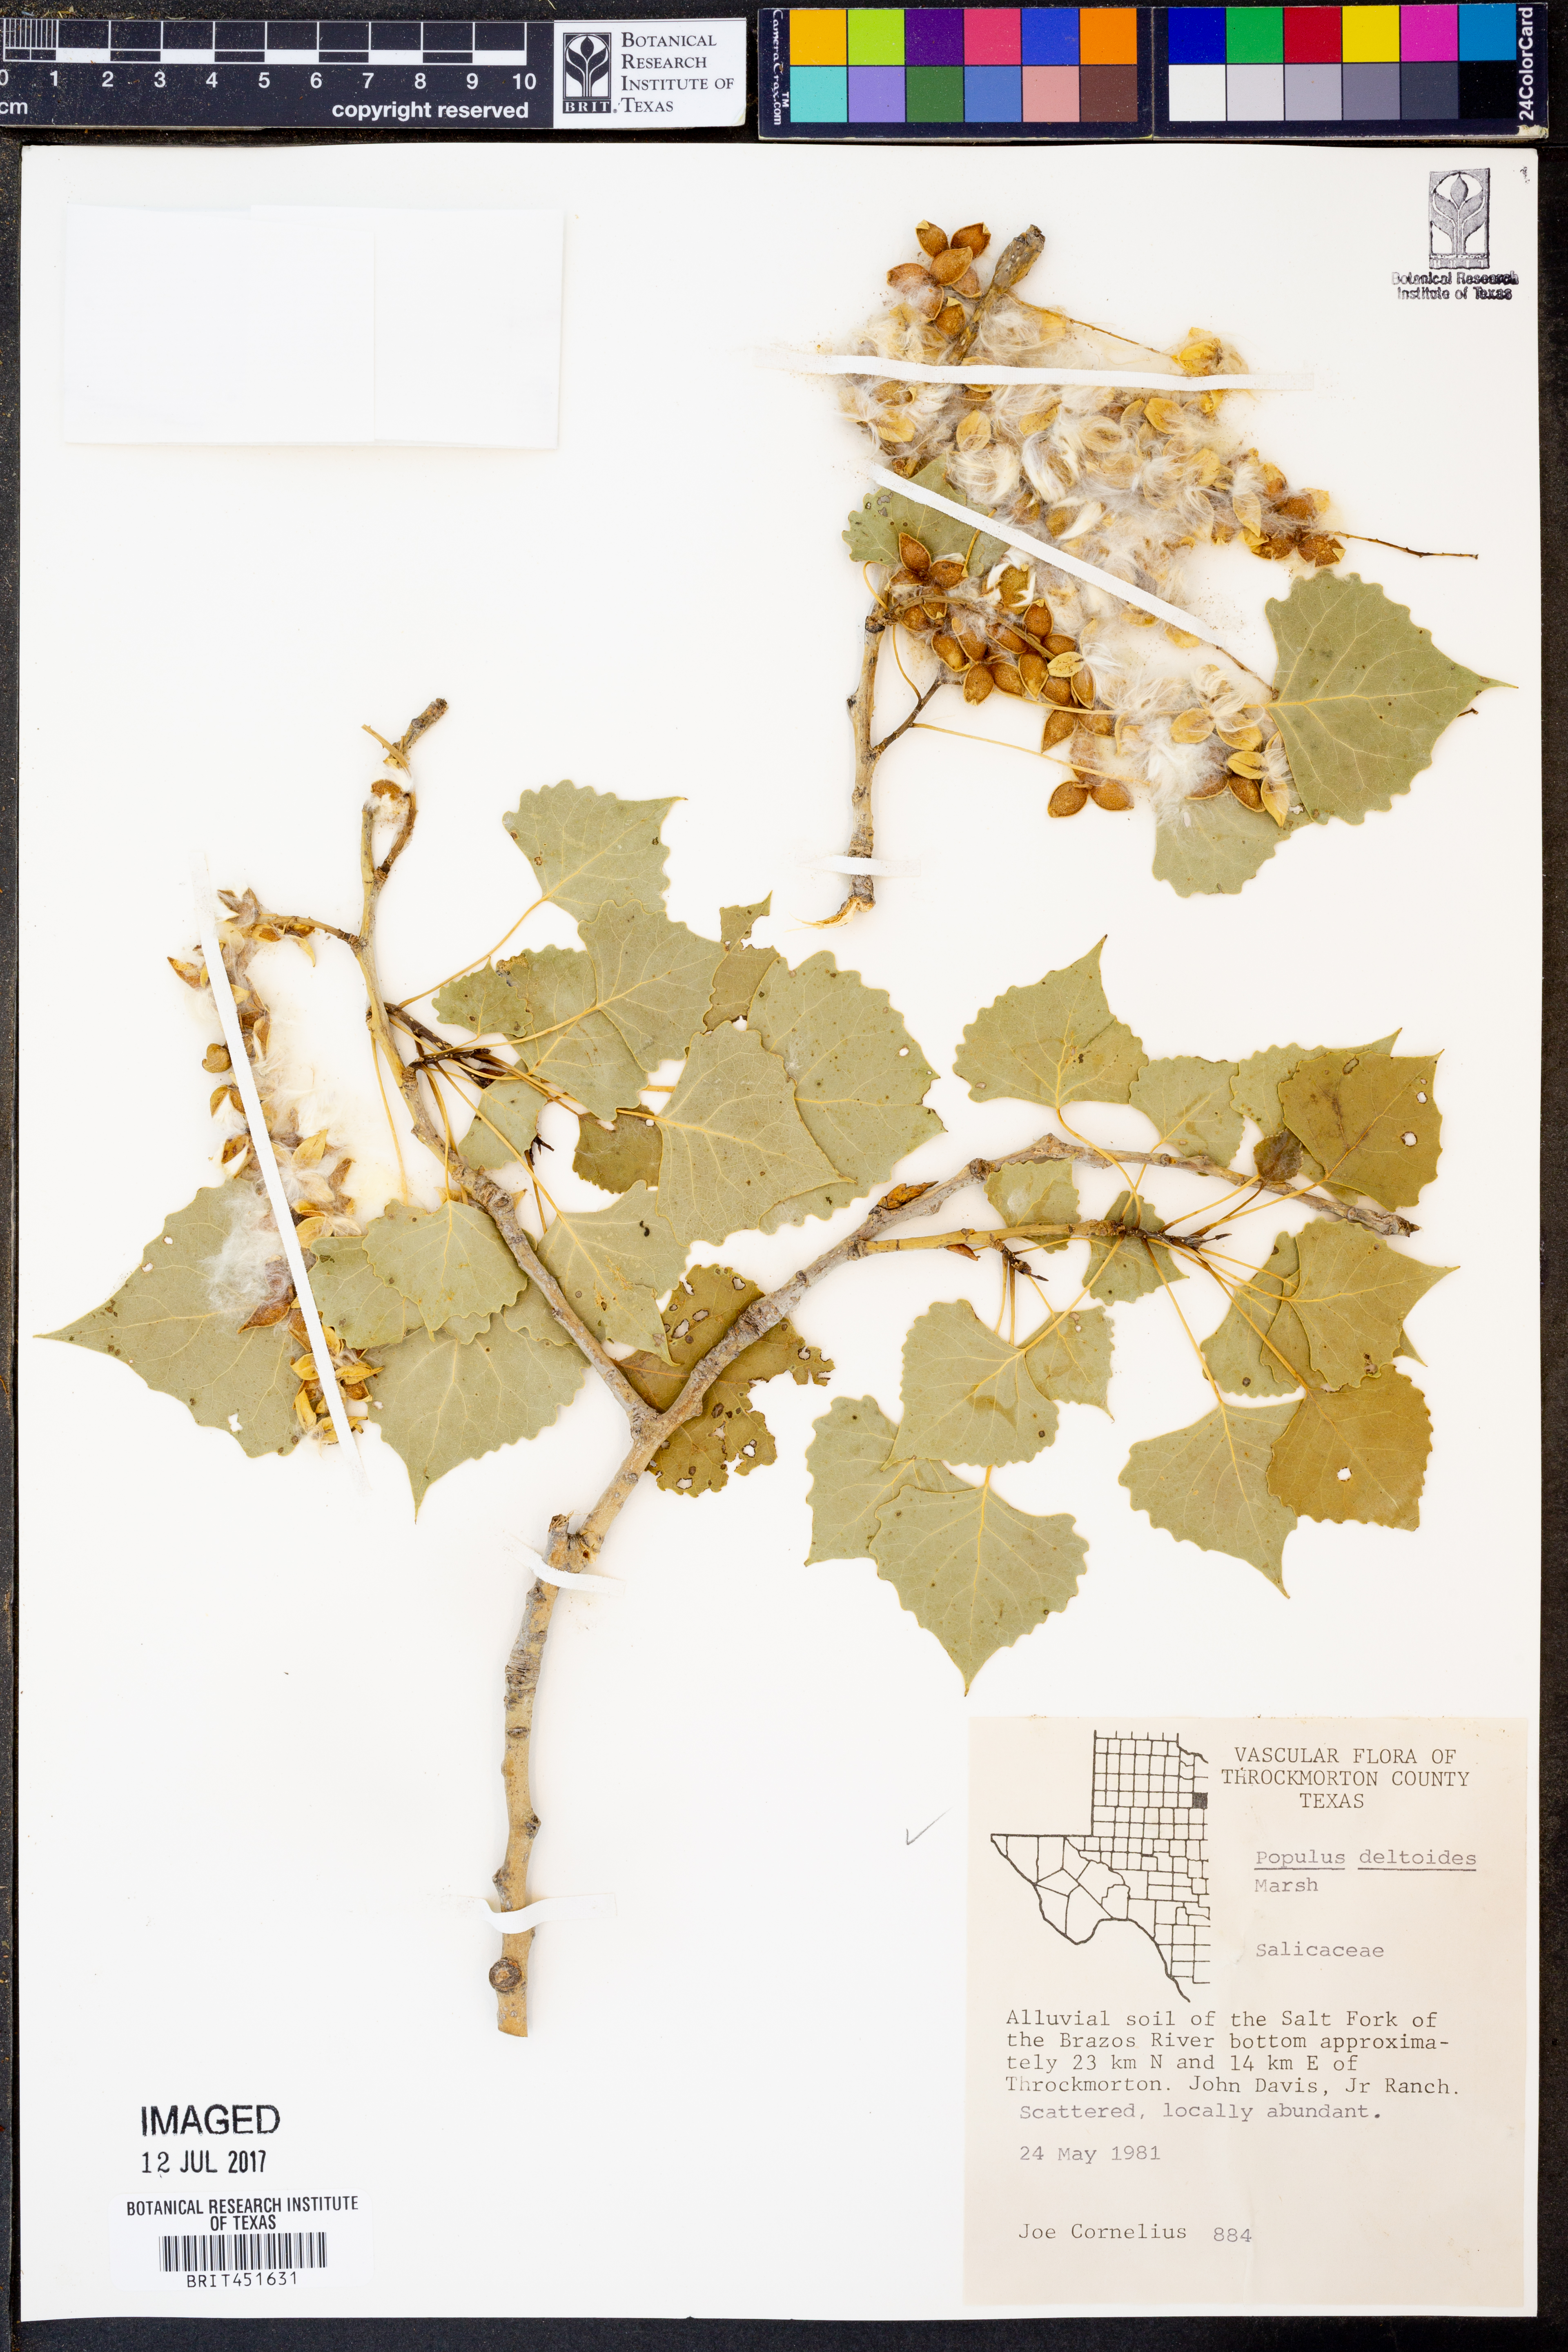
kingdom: Plantae
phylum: Tracheophyta
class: Magnoliopsida
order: Malpighiales
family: Salicaceae
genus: Populus
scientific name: Populus deltoides
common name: Eastern cottonwood
